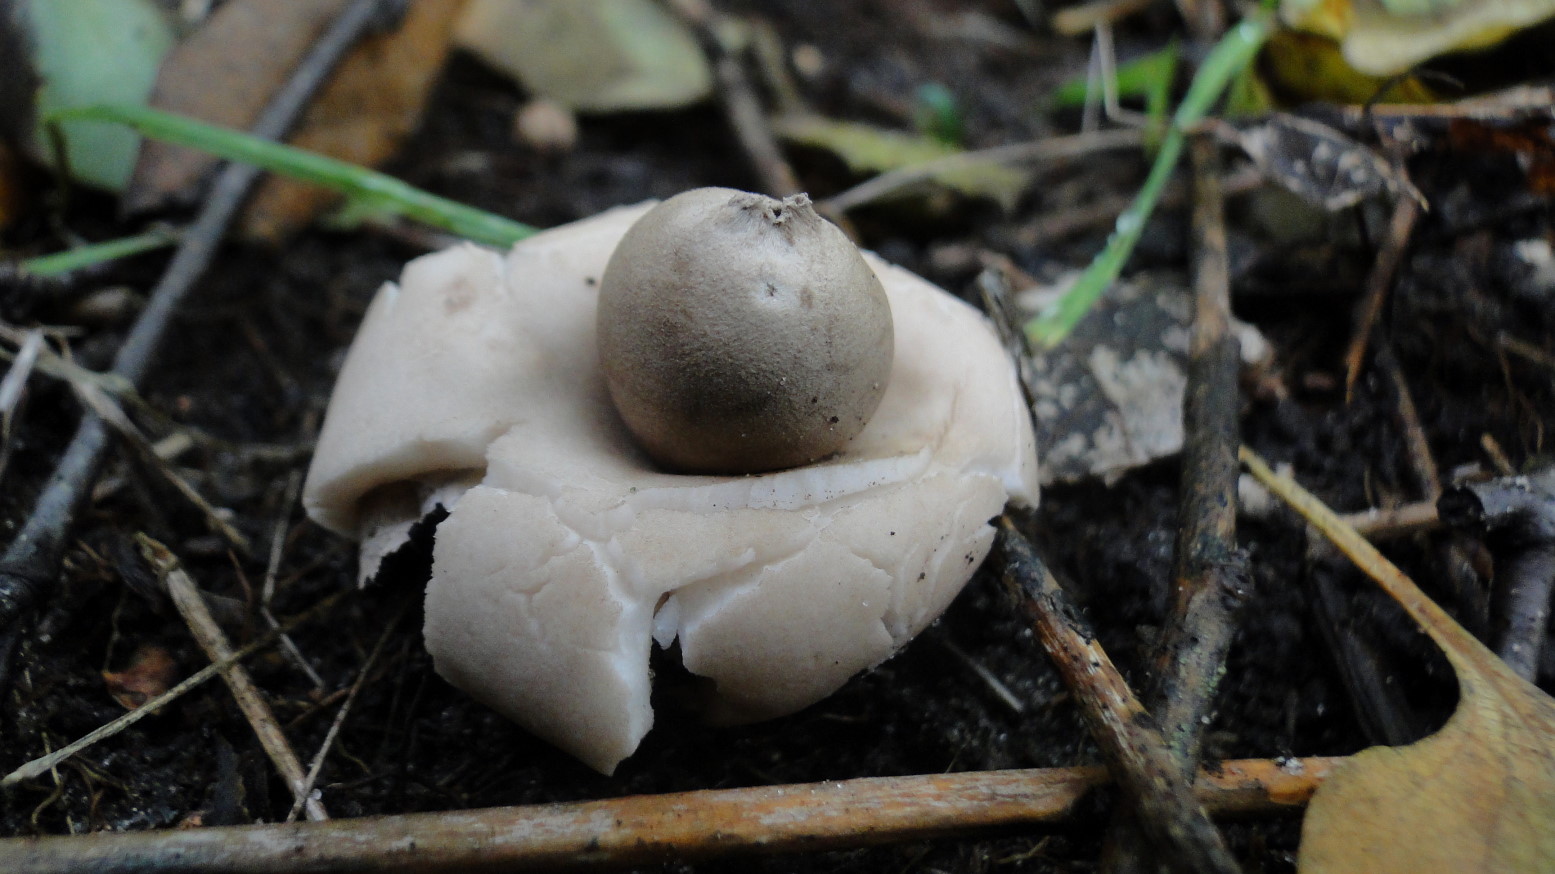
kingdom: Fungi
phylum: Basidiomycota
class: Agaricomycetes
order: Geastrales
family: Geastraceae
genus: Geastrum
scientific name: Geastrum fimbriatum
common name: frynset stjernebold
